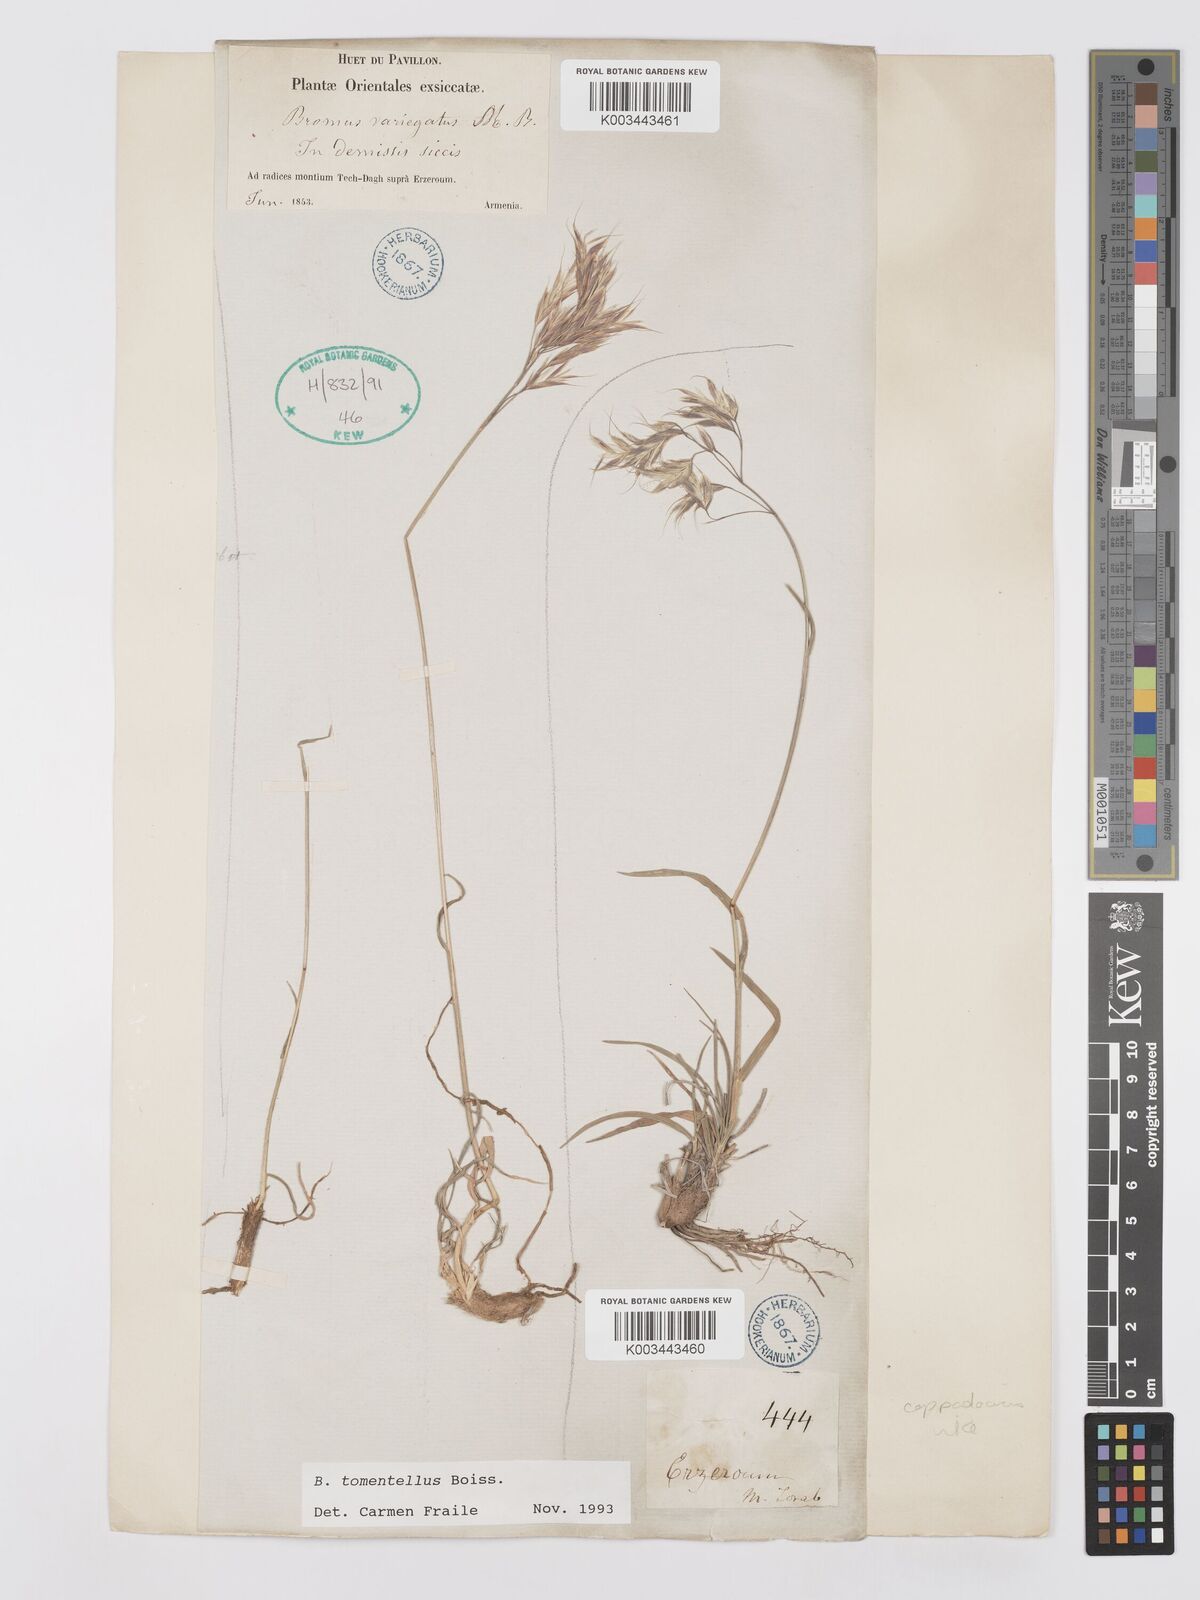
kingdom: Plantae
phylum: Tracheophyta
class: Liliopsida
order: Poales
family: Poaceae
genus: Bromus
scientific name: Bromus tomentellus
